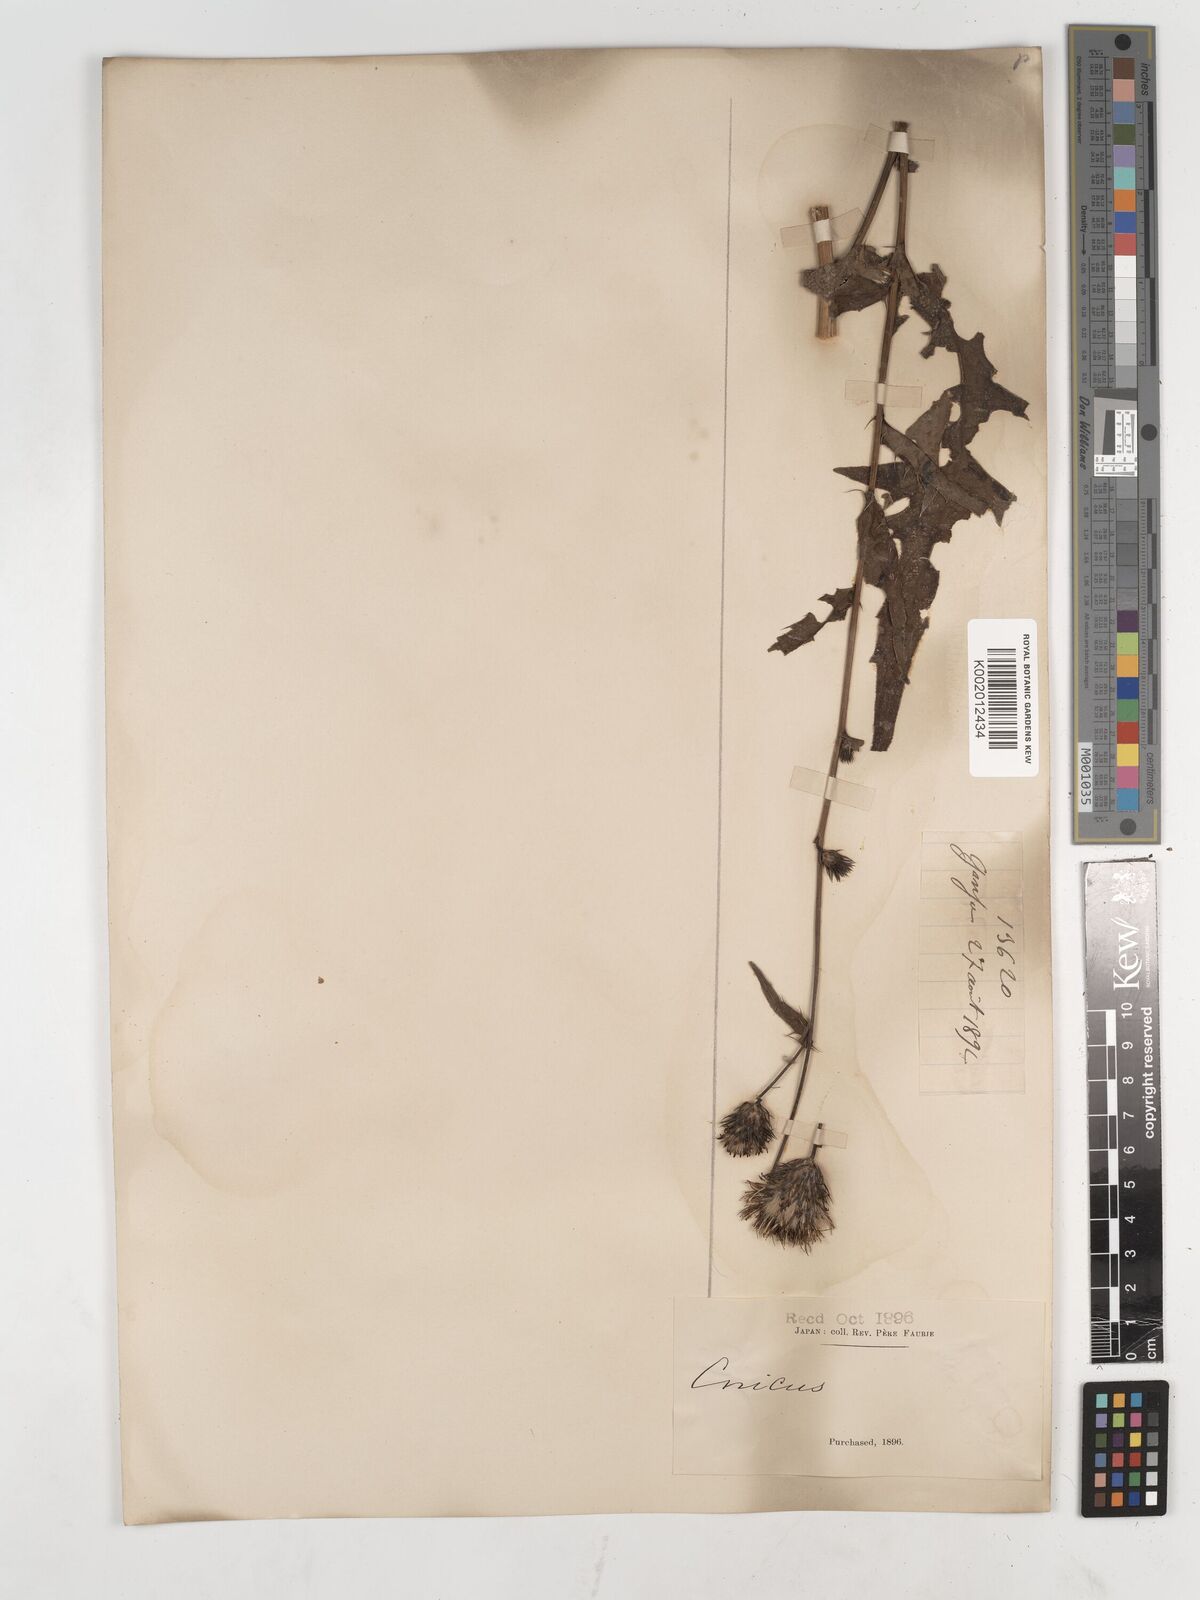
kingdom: Plantae
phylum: Tracheophyta
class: Magnoliopsida
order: Asterales
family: Asteraceae
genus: Cirsium
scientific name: Cirsium
